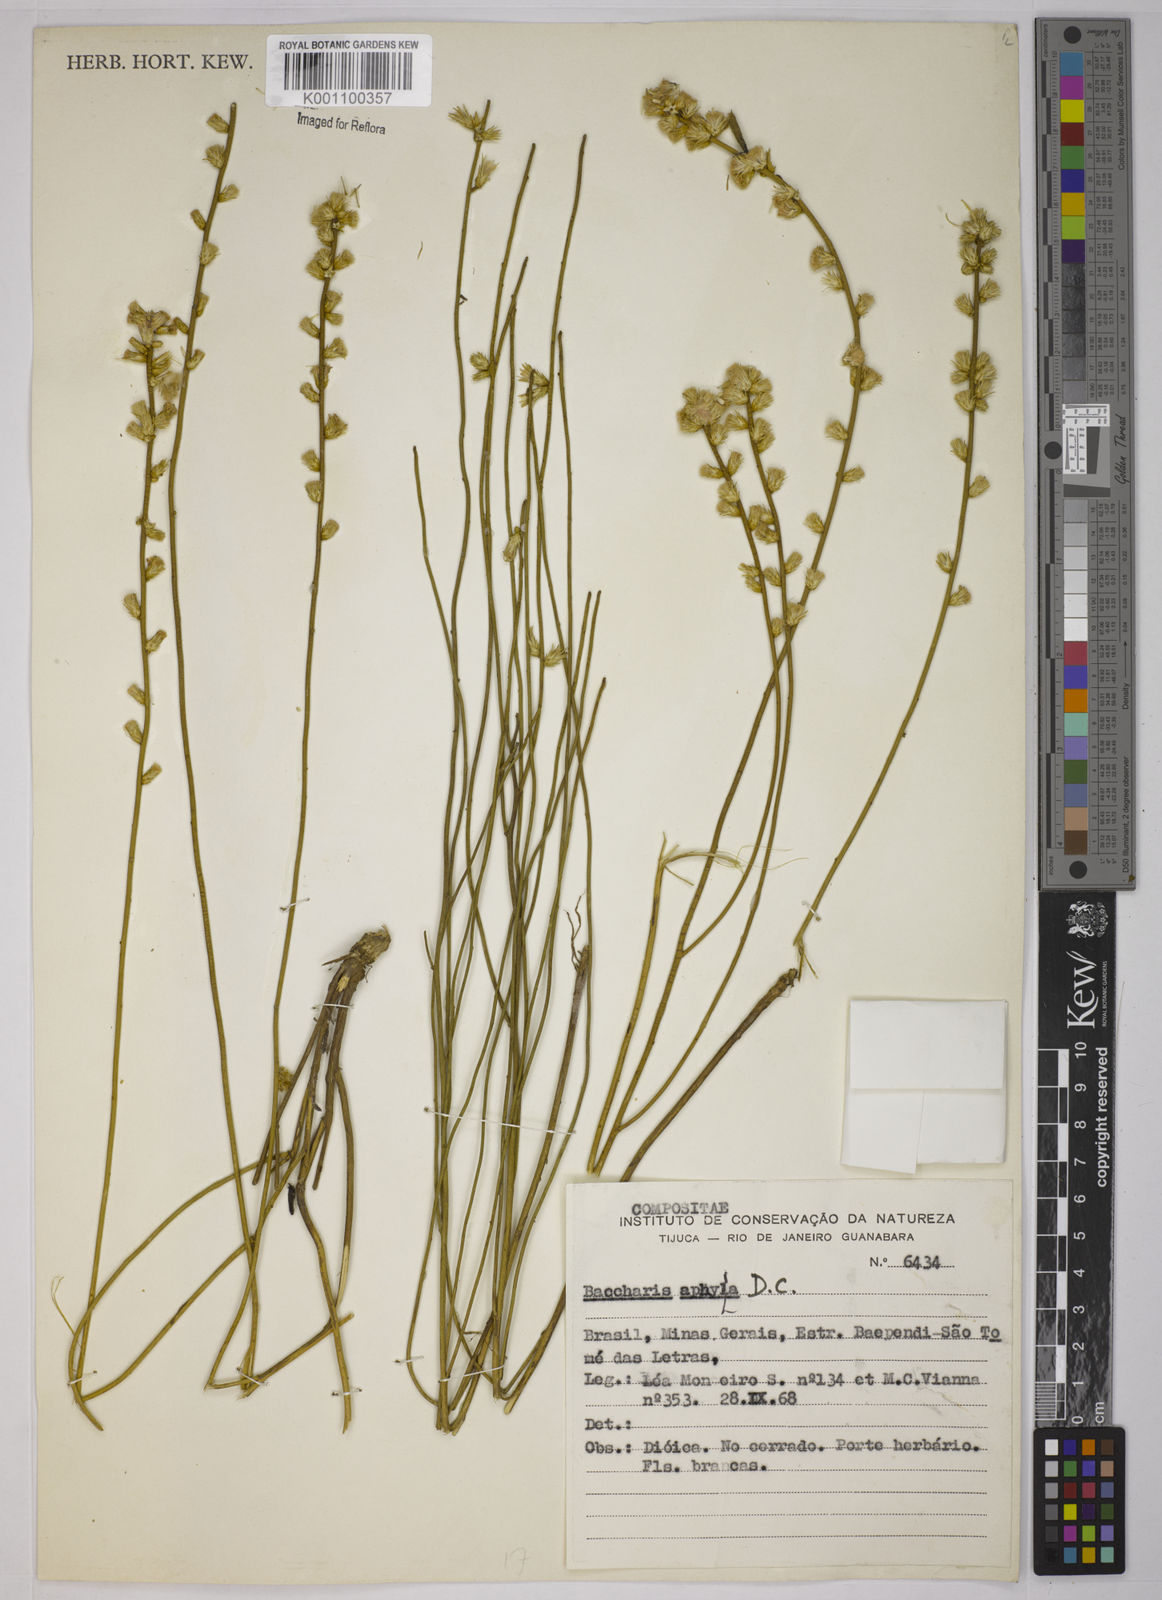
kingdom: Plantae
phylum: Tracheophyta
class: Magnoliopsida
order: Asterales
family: Asteraceae
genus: Baccharis
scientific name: Baccharis aphylla
